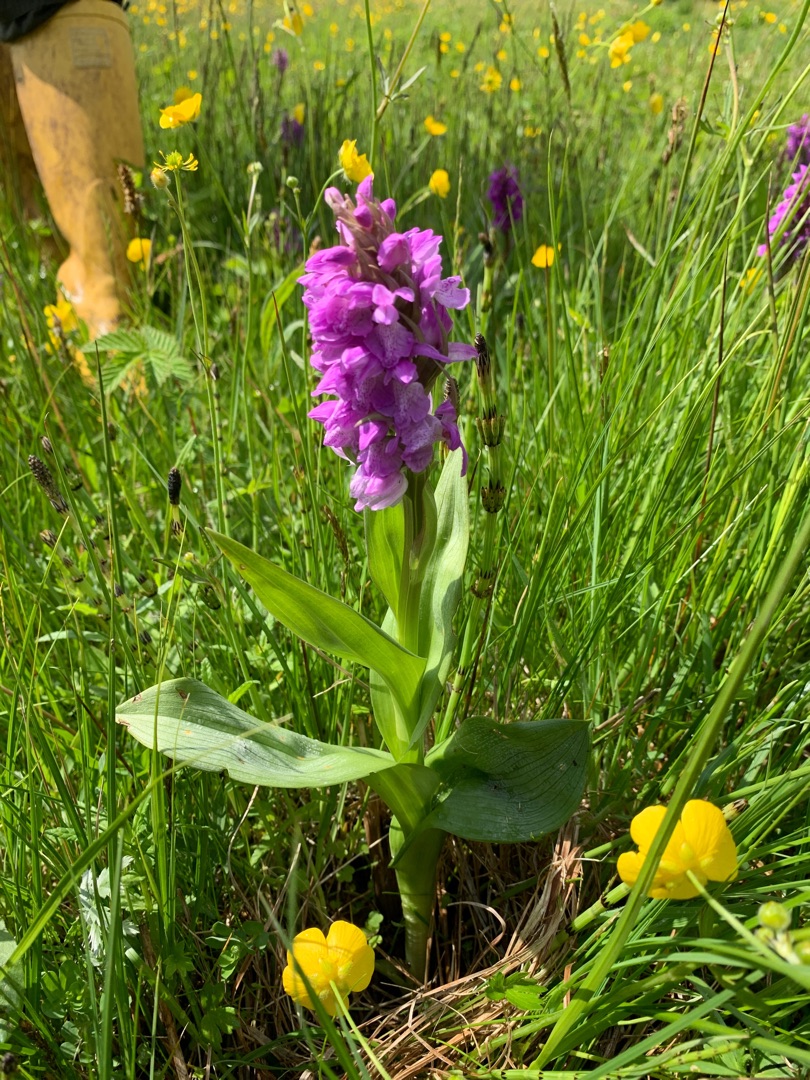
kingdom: Plantae
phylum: Tracheophyta
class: Liliopsida
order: Asparagales
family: Orchidaceae
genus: Dactylorhiza
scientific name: Dactylorhiza majalis
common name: Maj-gøgeurt
